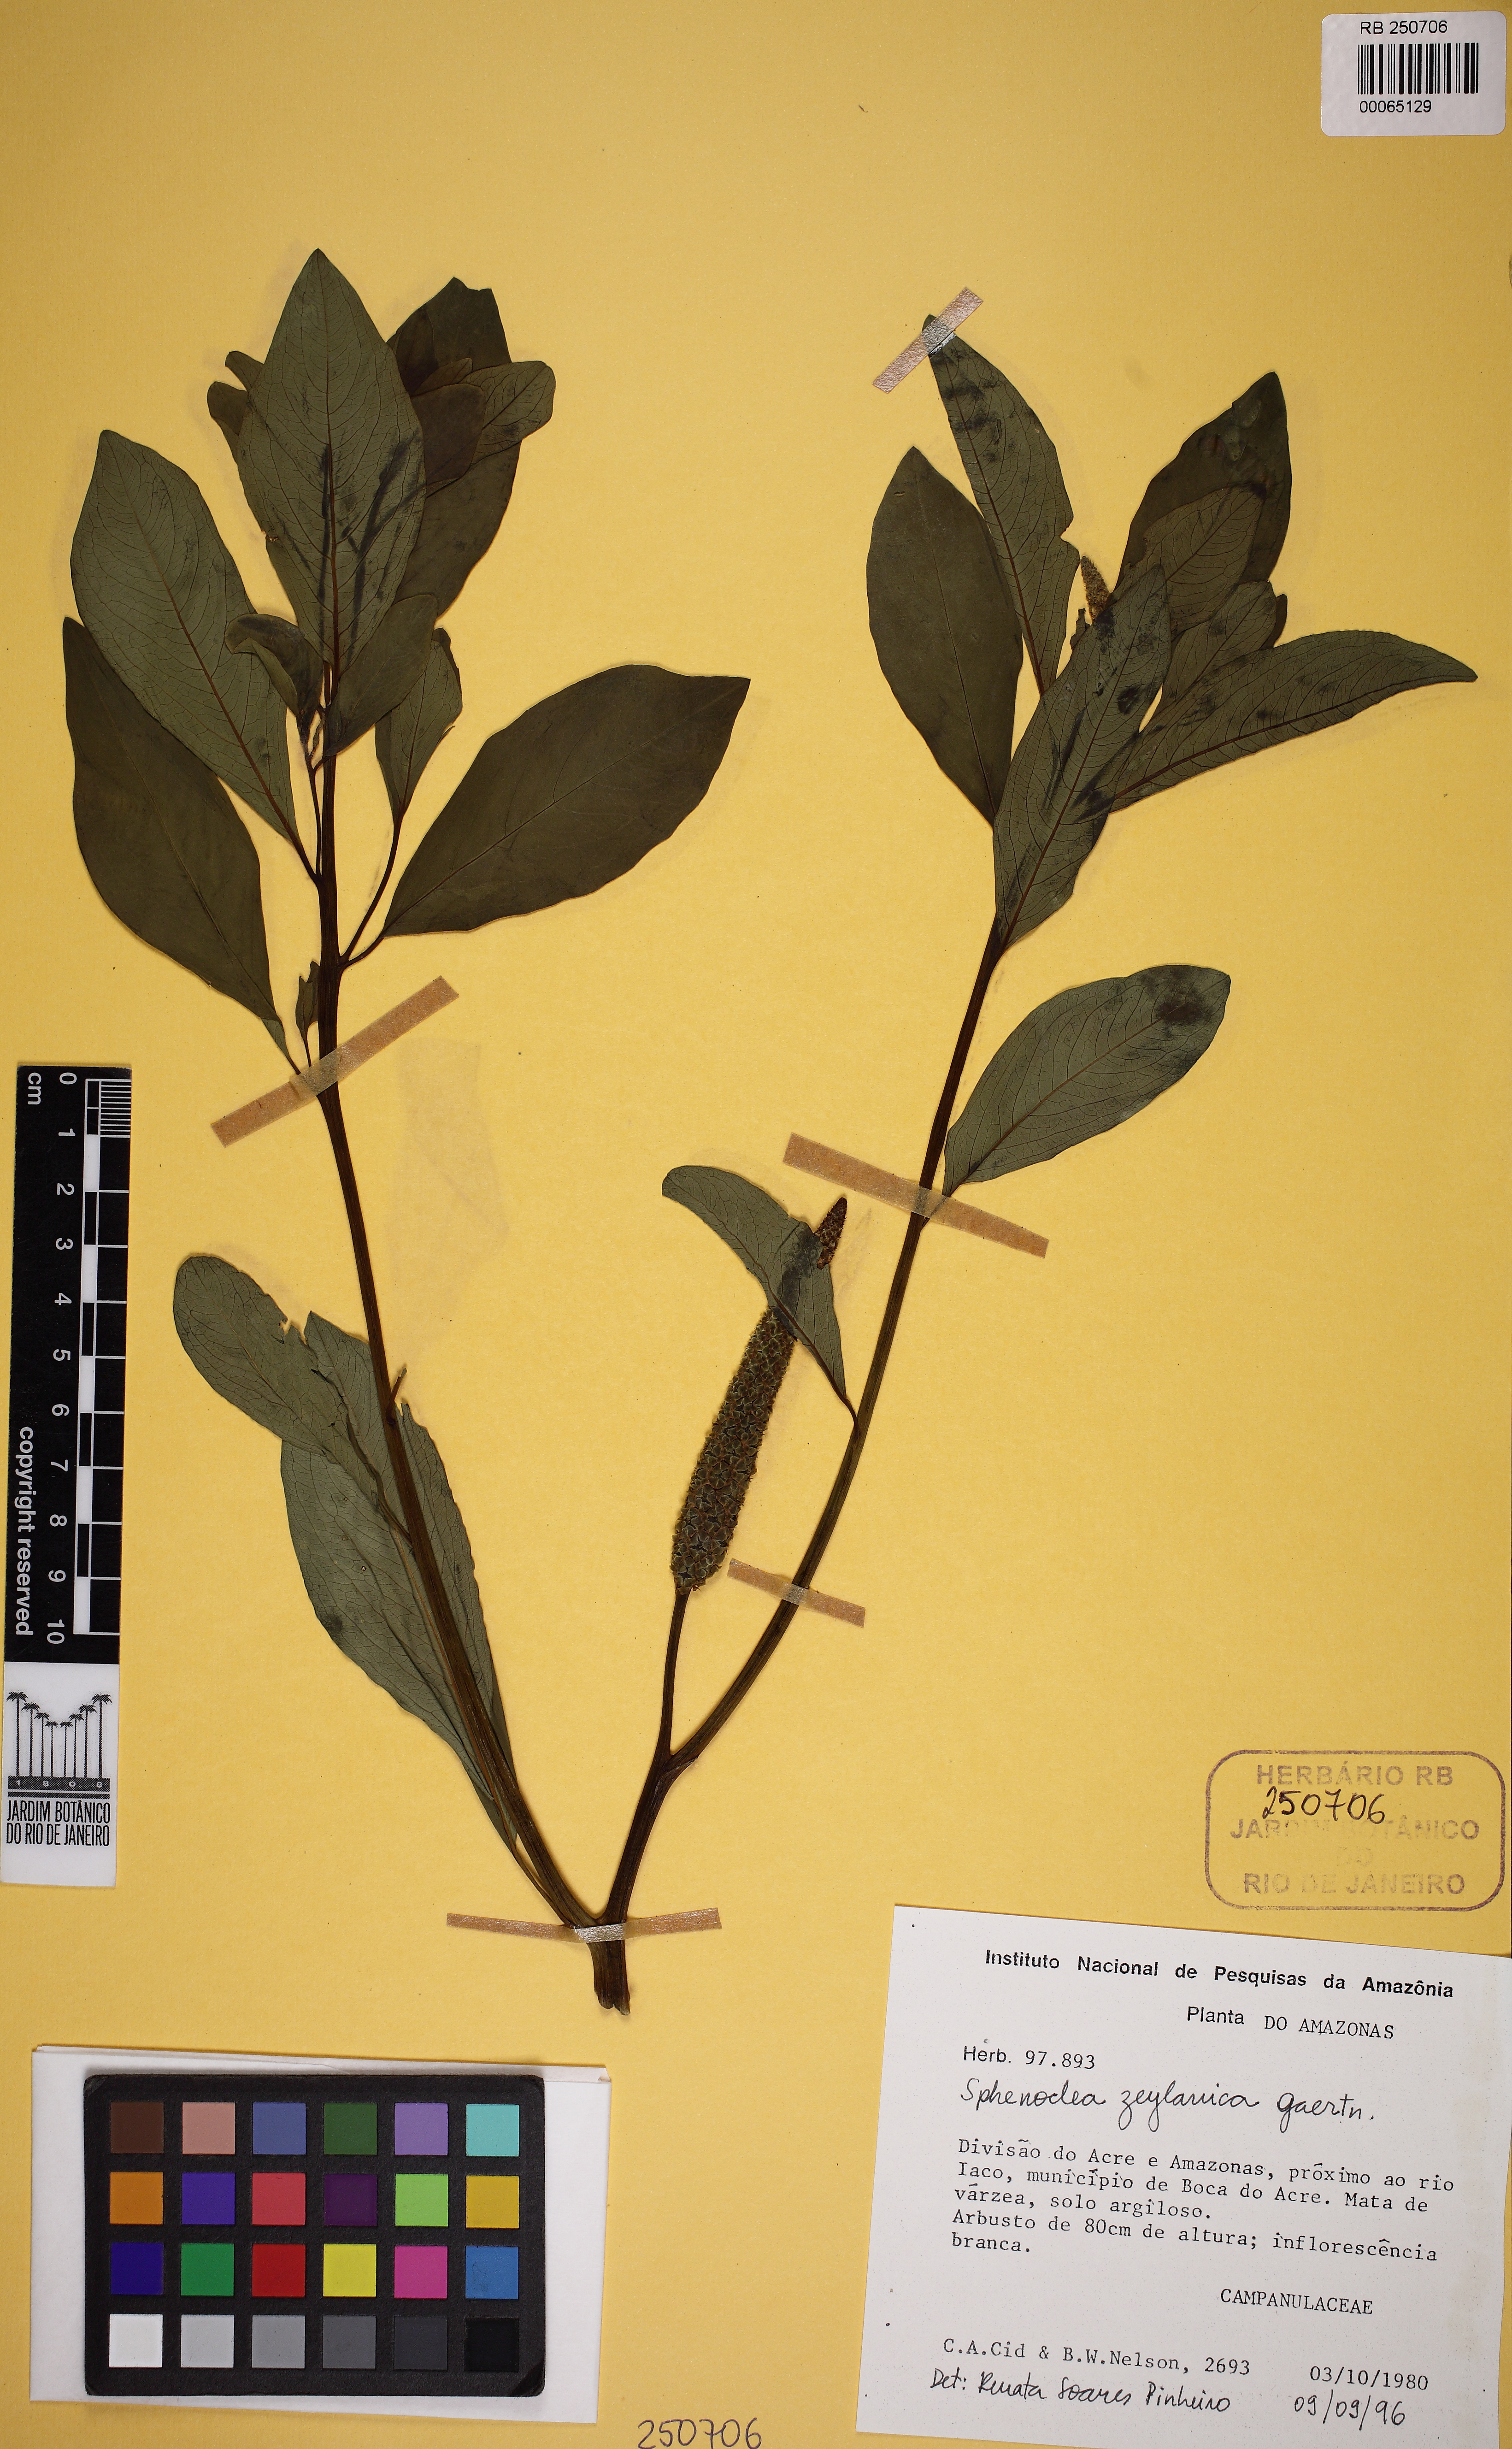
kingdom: Plantae
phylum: Tracheophyta
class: Magnoliopsida
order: Solanales
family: Sphenocleaceae
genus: Sphenoclea
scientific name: Sphenoclea zeylanica
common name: Chickenspike
